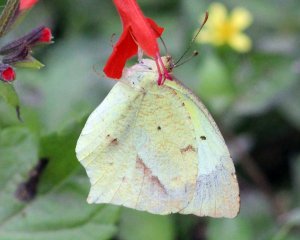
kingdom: Animalia
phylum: Arthropoda
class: Insecta
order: Lepidoptera
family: Pieridae
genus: Eurema
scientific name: Eurema mexicana
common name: Mexican Yellow
